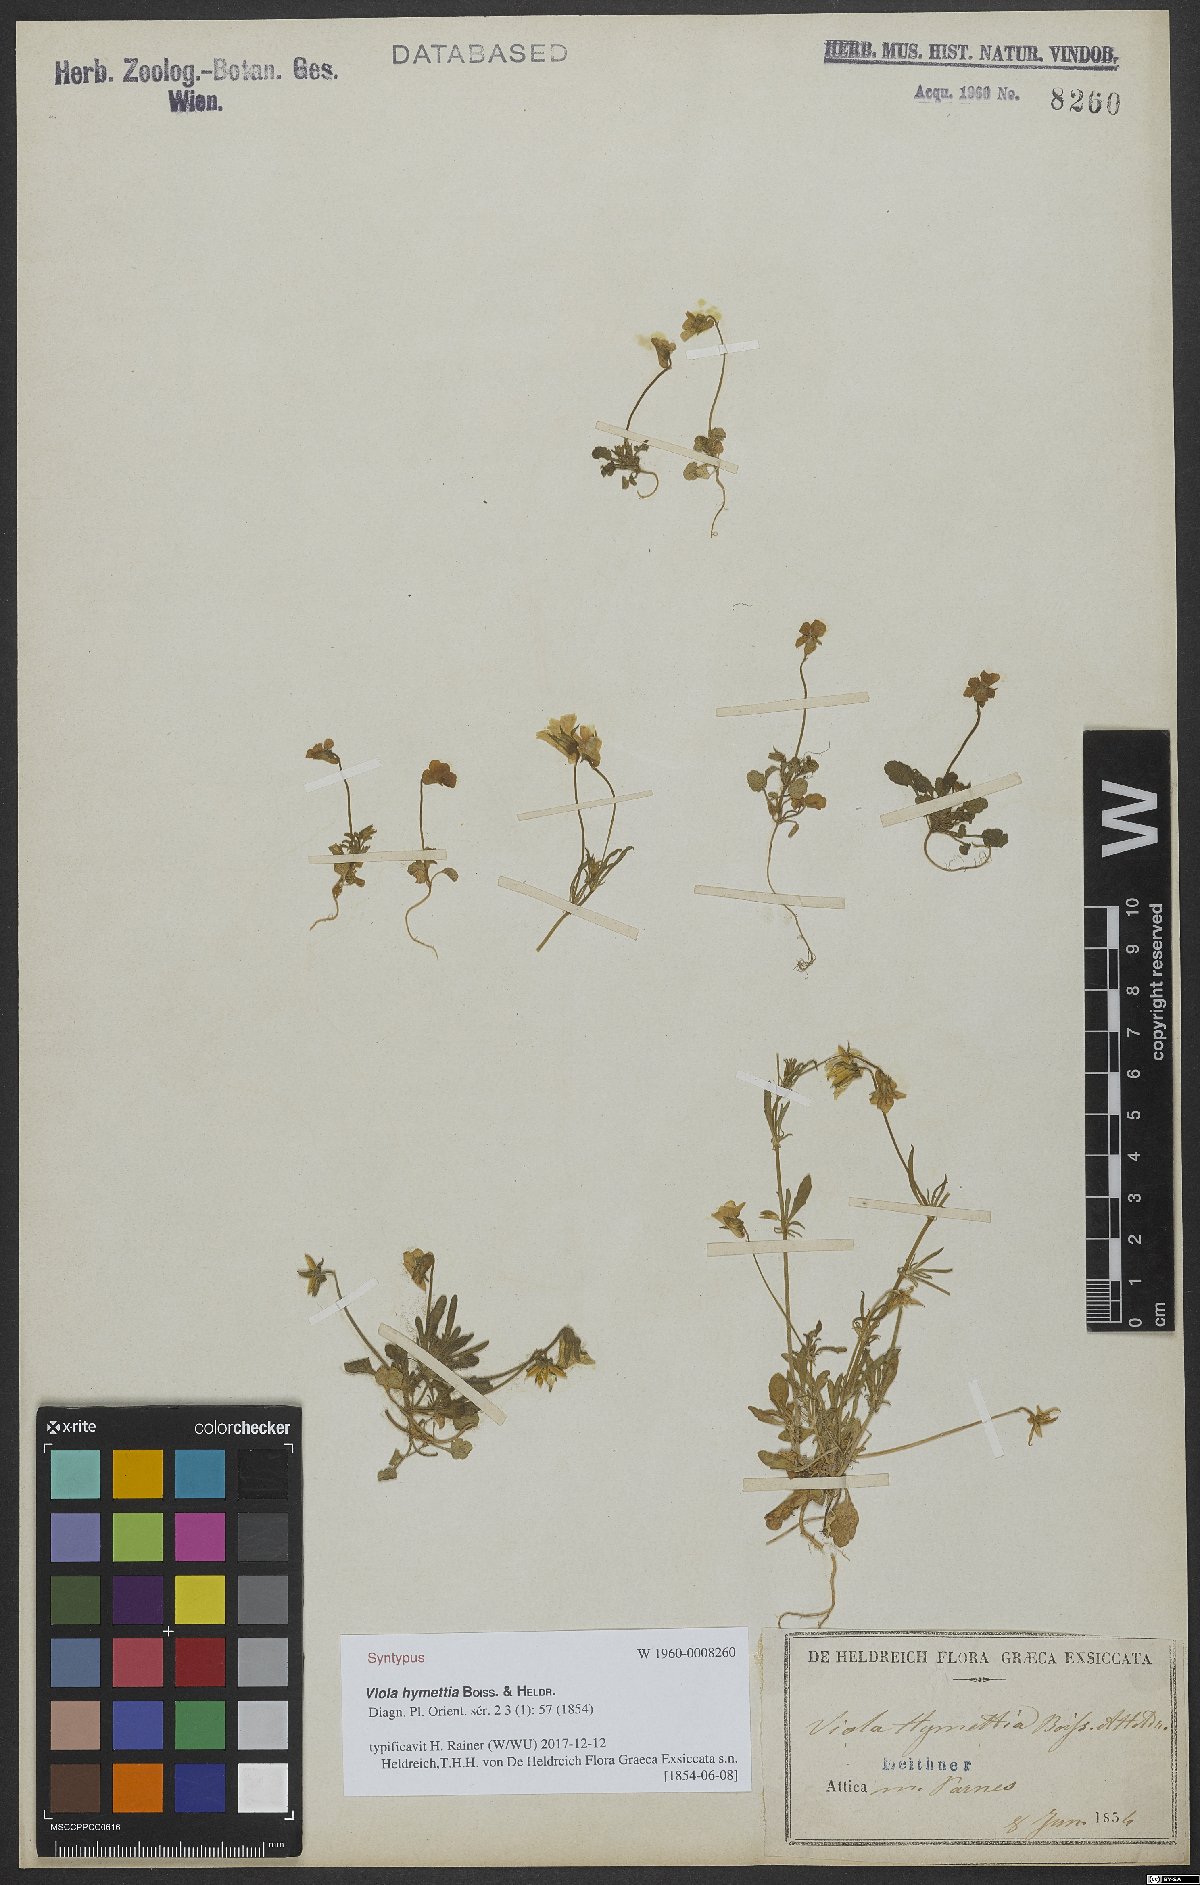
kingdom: Plantae
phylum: Tracheophyta
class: Magnoliopsida
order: Malpighiales
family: Violaceae
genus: Viola
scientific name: Viola hymettia
